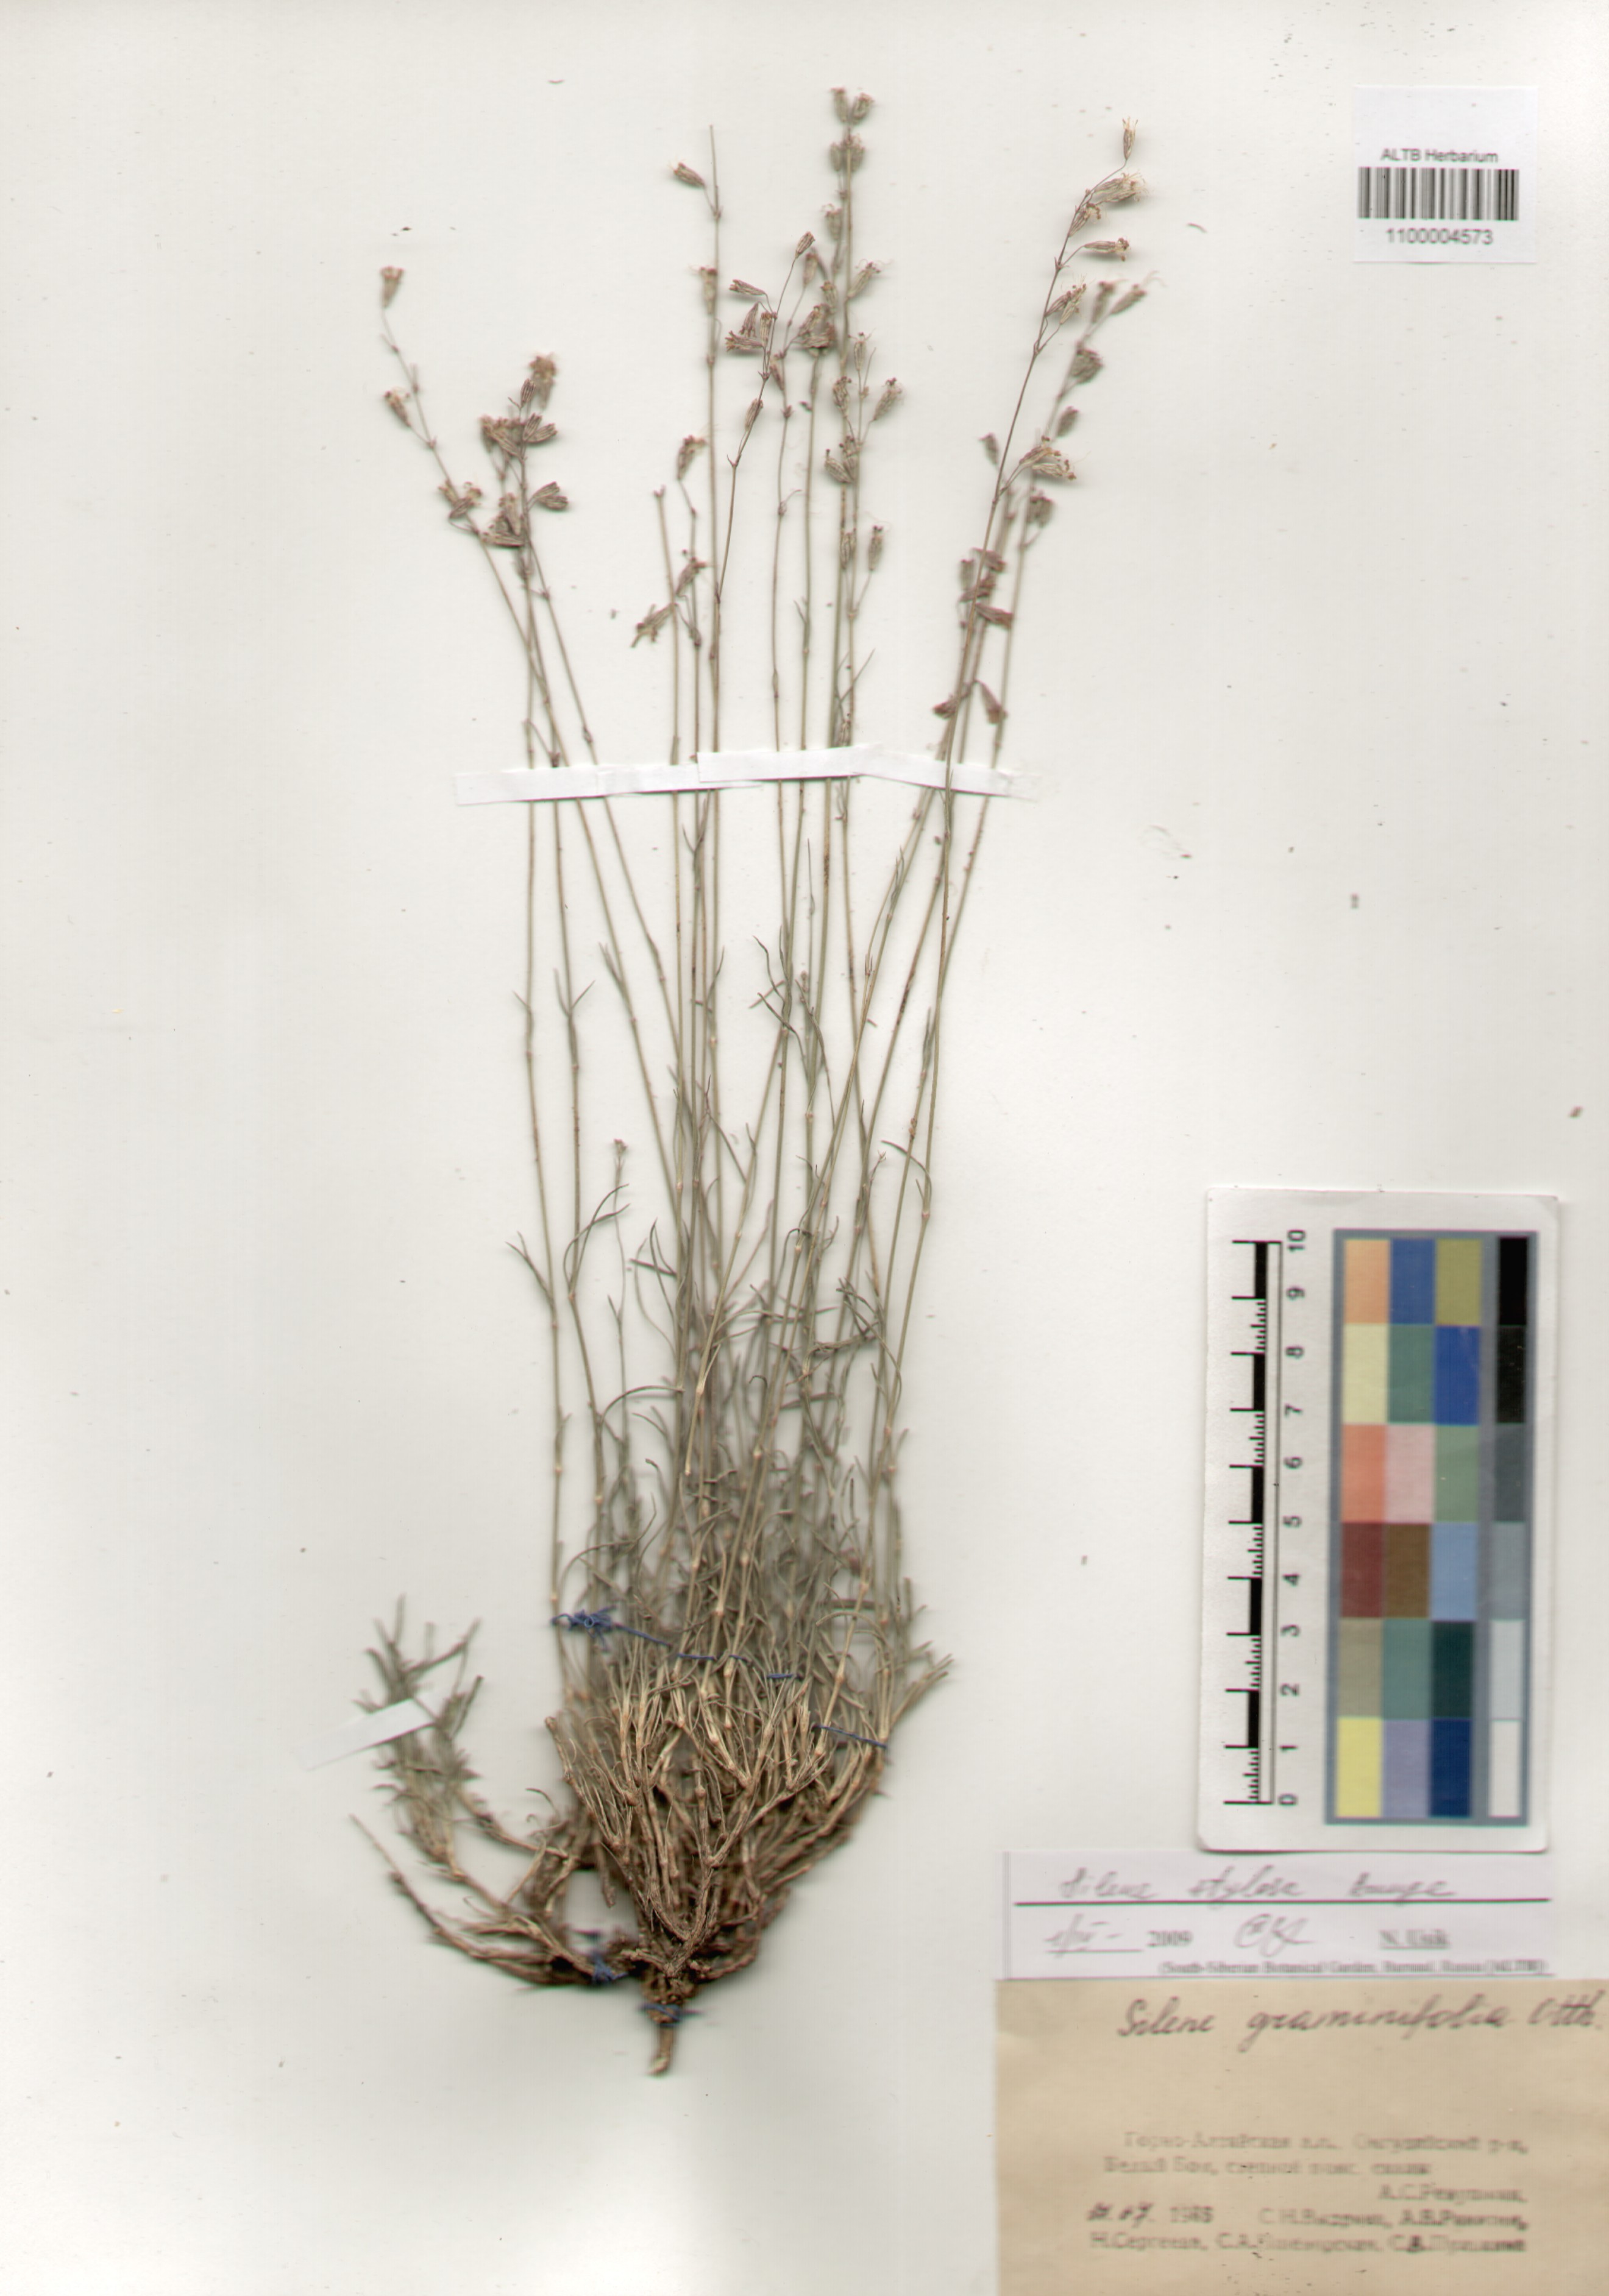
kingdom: Plantae
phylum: Tracheophyta
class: Magnoliopsida
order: Caryophyllales
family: Caryophyllaceae
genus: Silene
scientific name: Silene graminifolia
